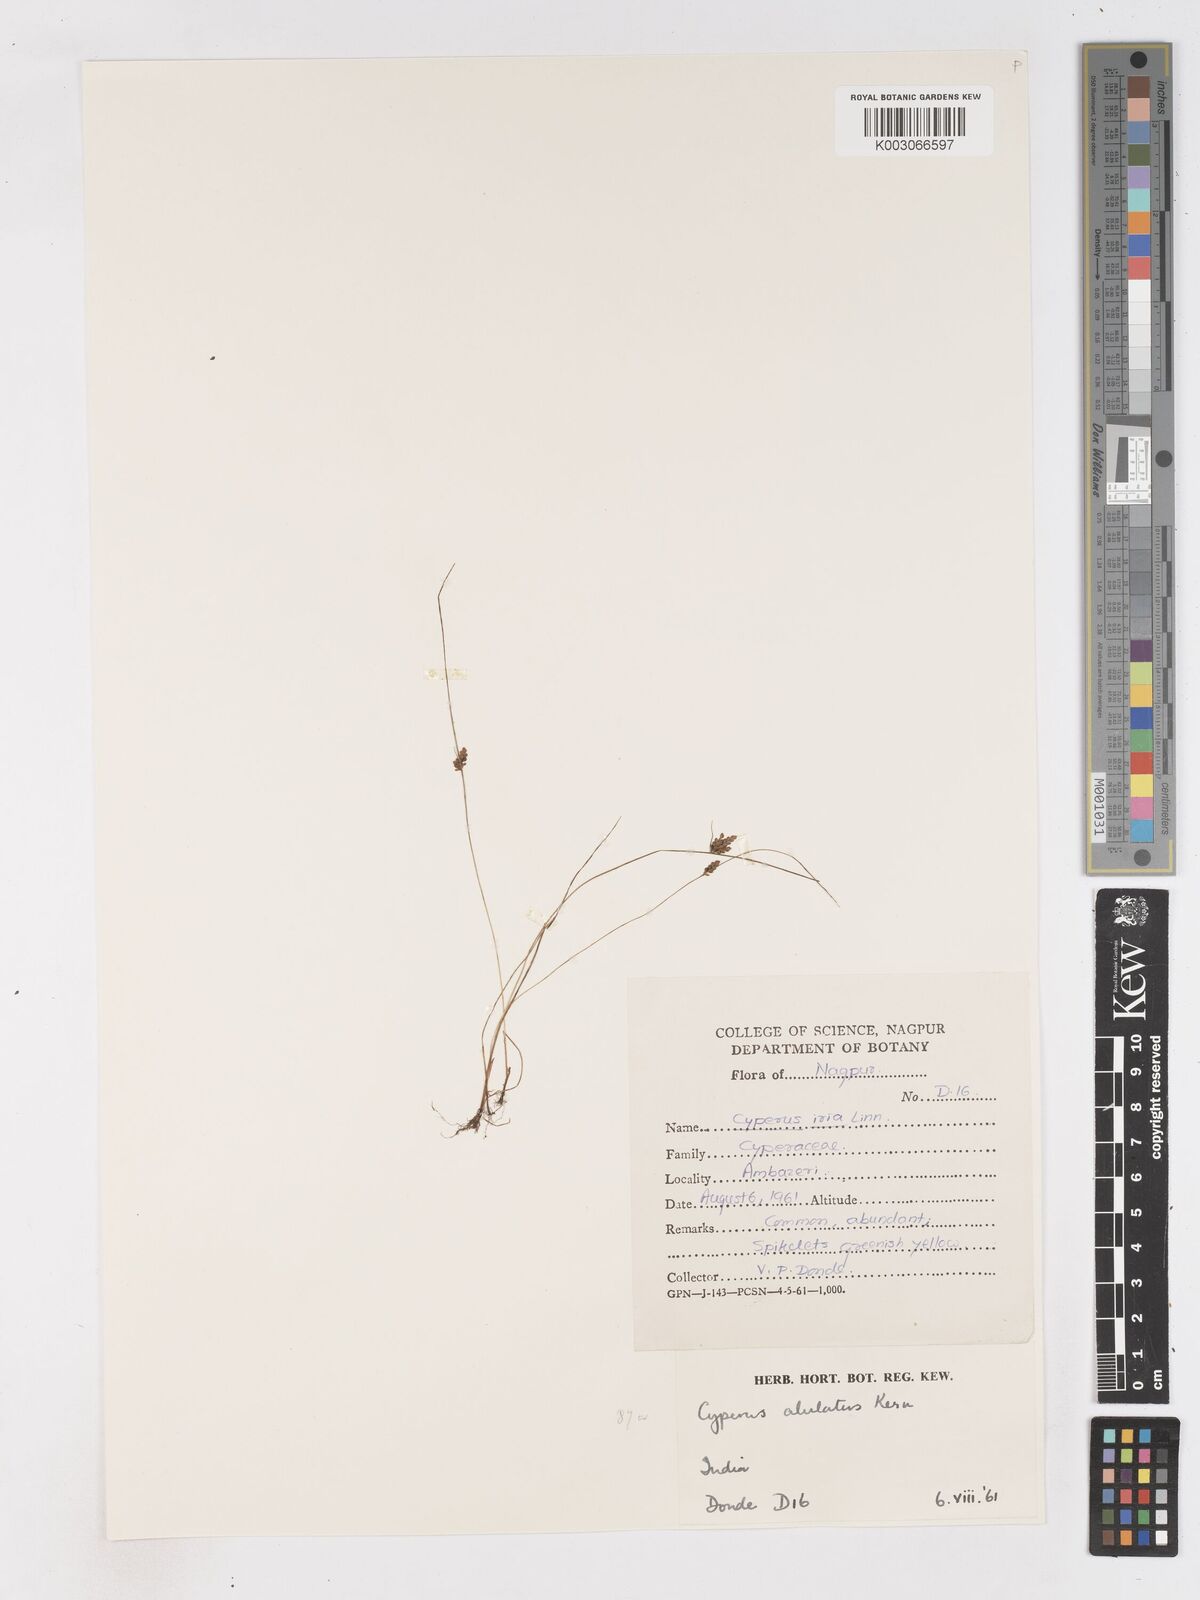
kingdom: Plantae
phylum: Tracheophyta
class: Liliopsida
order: Poales
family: Cyperaceae
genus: Cyperus
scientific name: Cyperus alulatus
